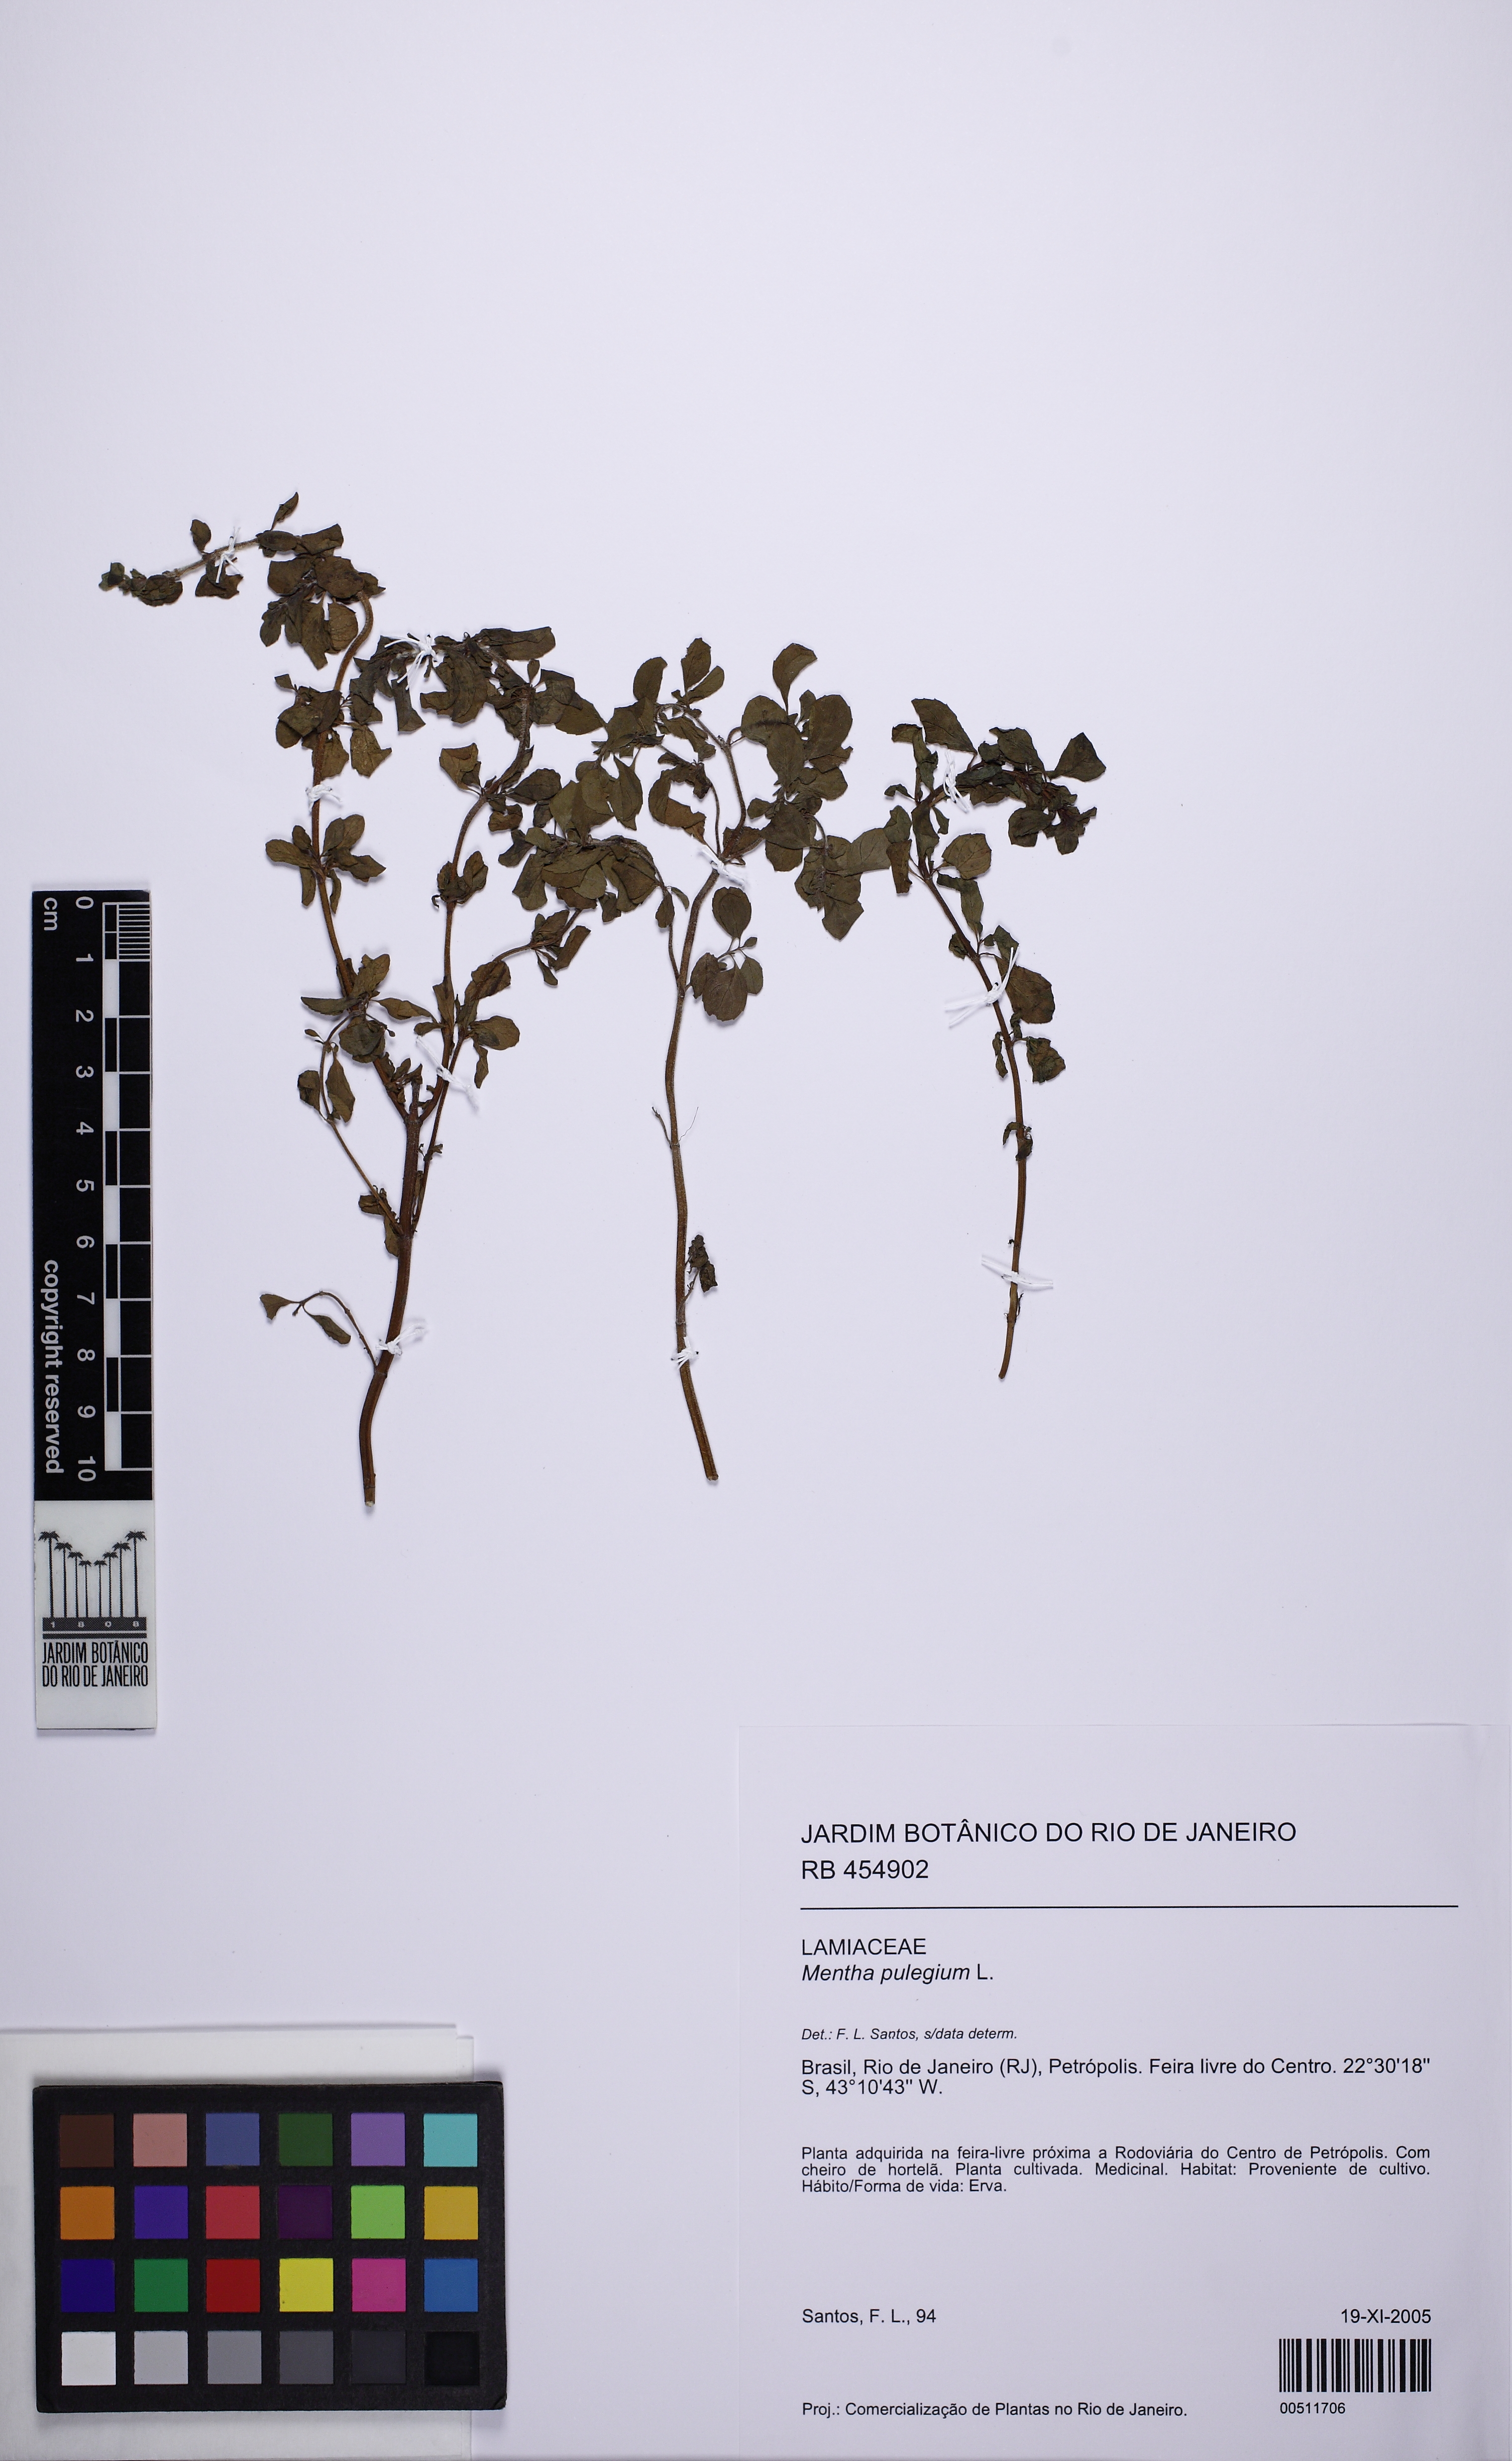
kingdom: Plantae
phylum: Tracheophyta
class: Magnoliopsida
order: Lamiales
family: Lamiaceae
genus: Mentha
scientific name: Mentha pulegium
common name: Pennyroyal
